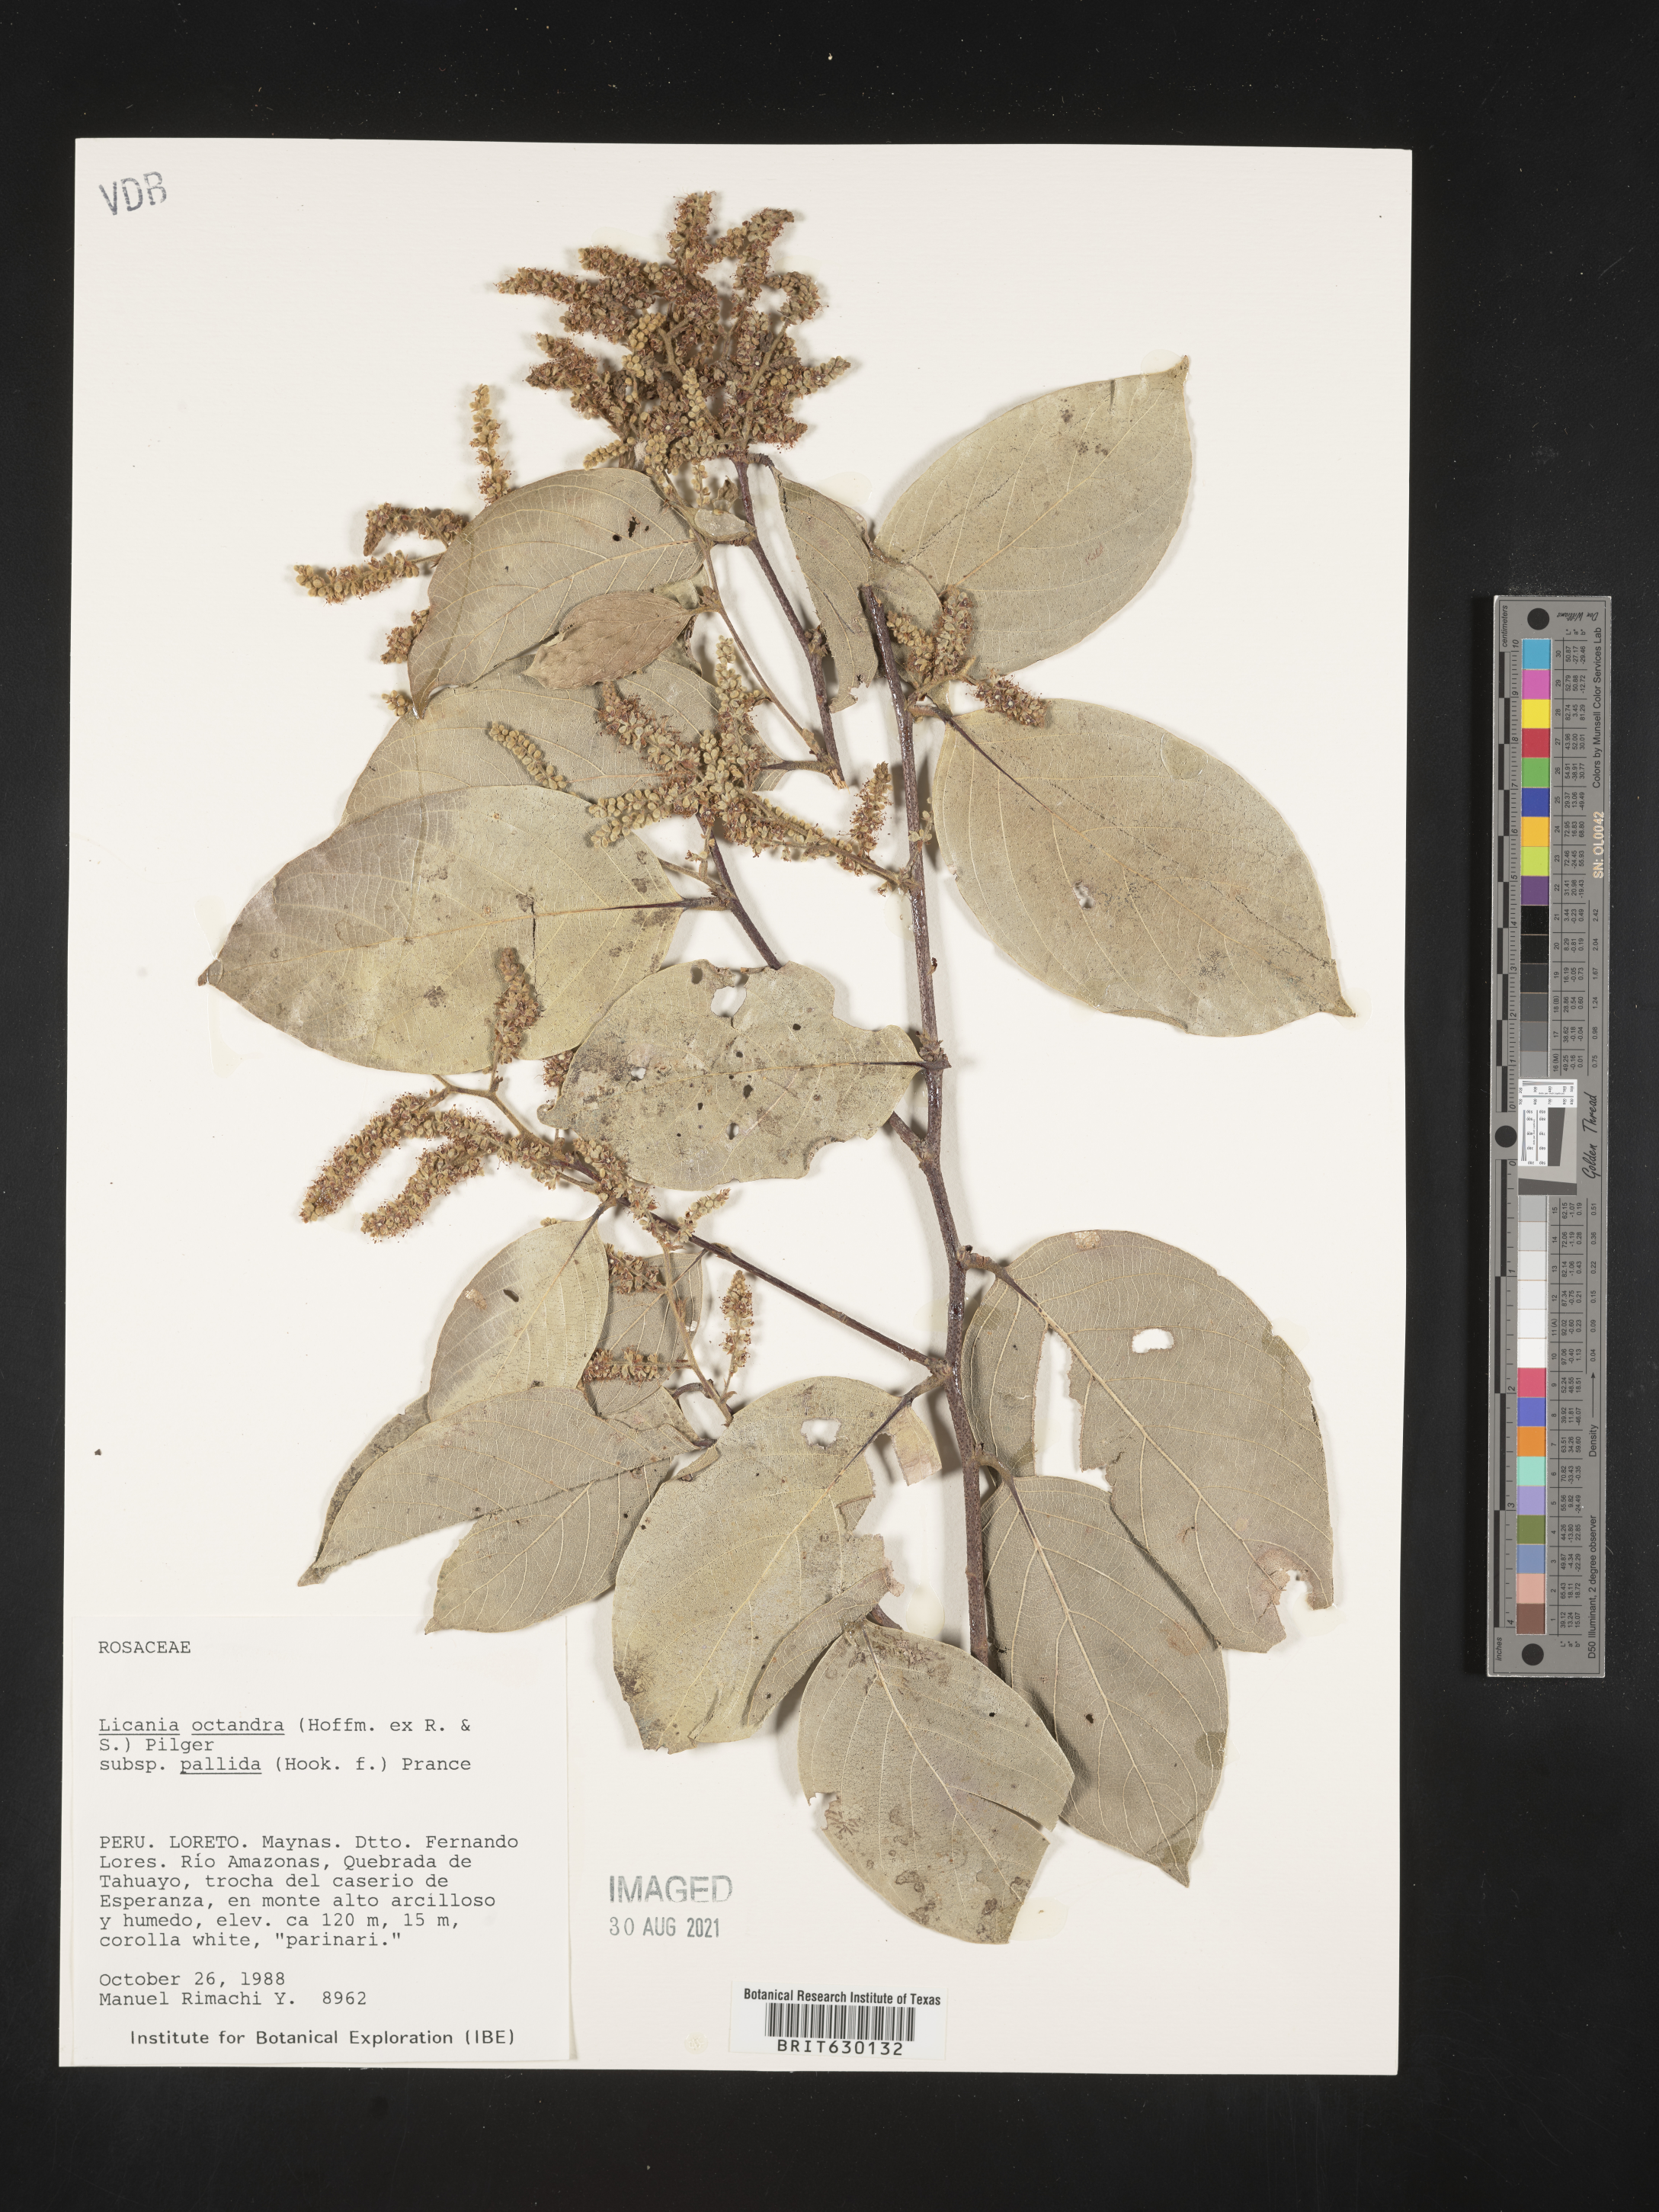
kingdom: Plantae
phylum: Tracheophyta
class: Magnoliopsida
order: Malpighiales
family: Chrysobalanaceae
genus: Leptobalanus
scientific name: Leptobalanus octandrus
